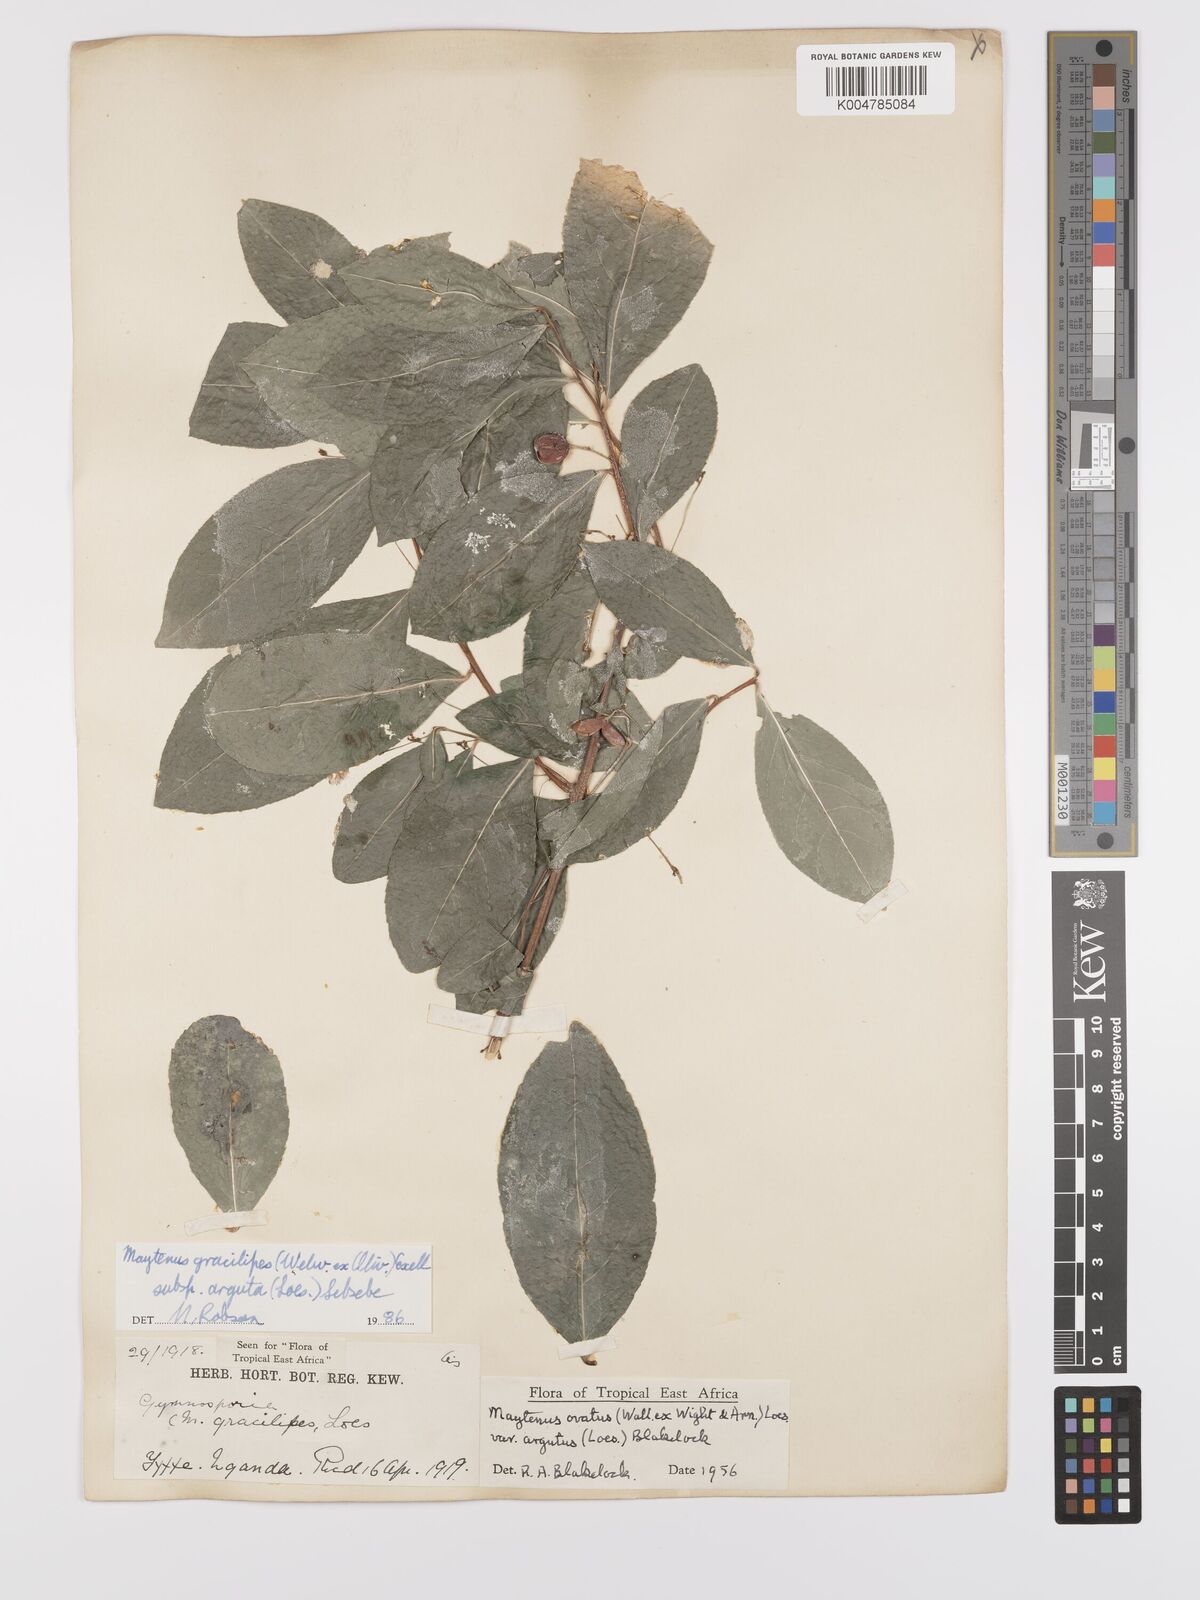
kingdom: Plantae
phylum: Tracheophyta
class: Magnoliopsida
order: Celastrales
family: Celastraceae
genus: Gymnosporia
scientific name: Gymnosporia gracilipes
